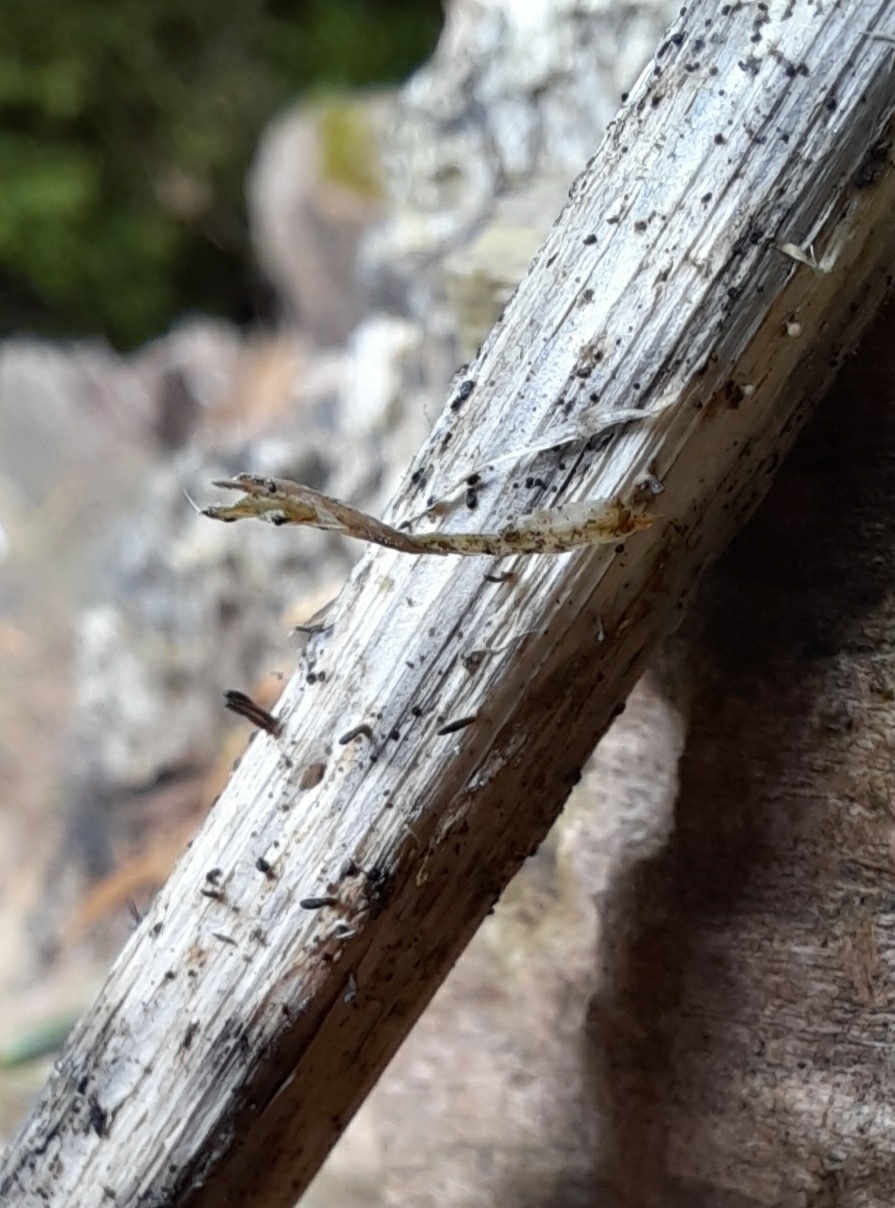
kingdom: Fungi
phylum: Ascomycota
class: Dothideomycetes
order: Acrospermales
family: Acrospermaceae
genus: Acrospermum
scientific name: Acrospermum compressum
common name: nælde-stængeltunge
